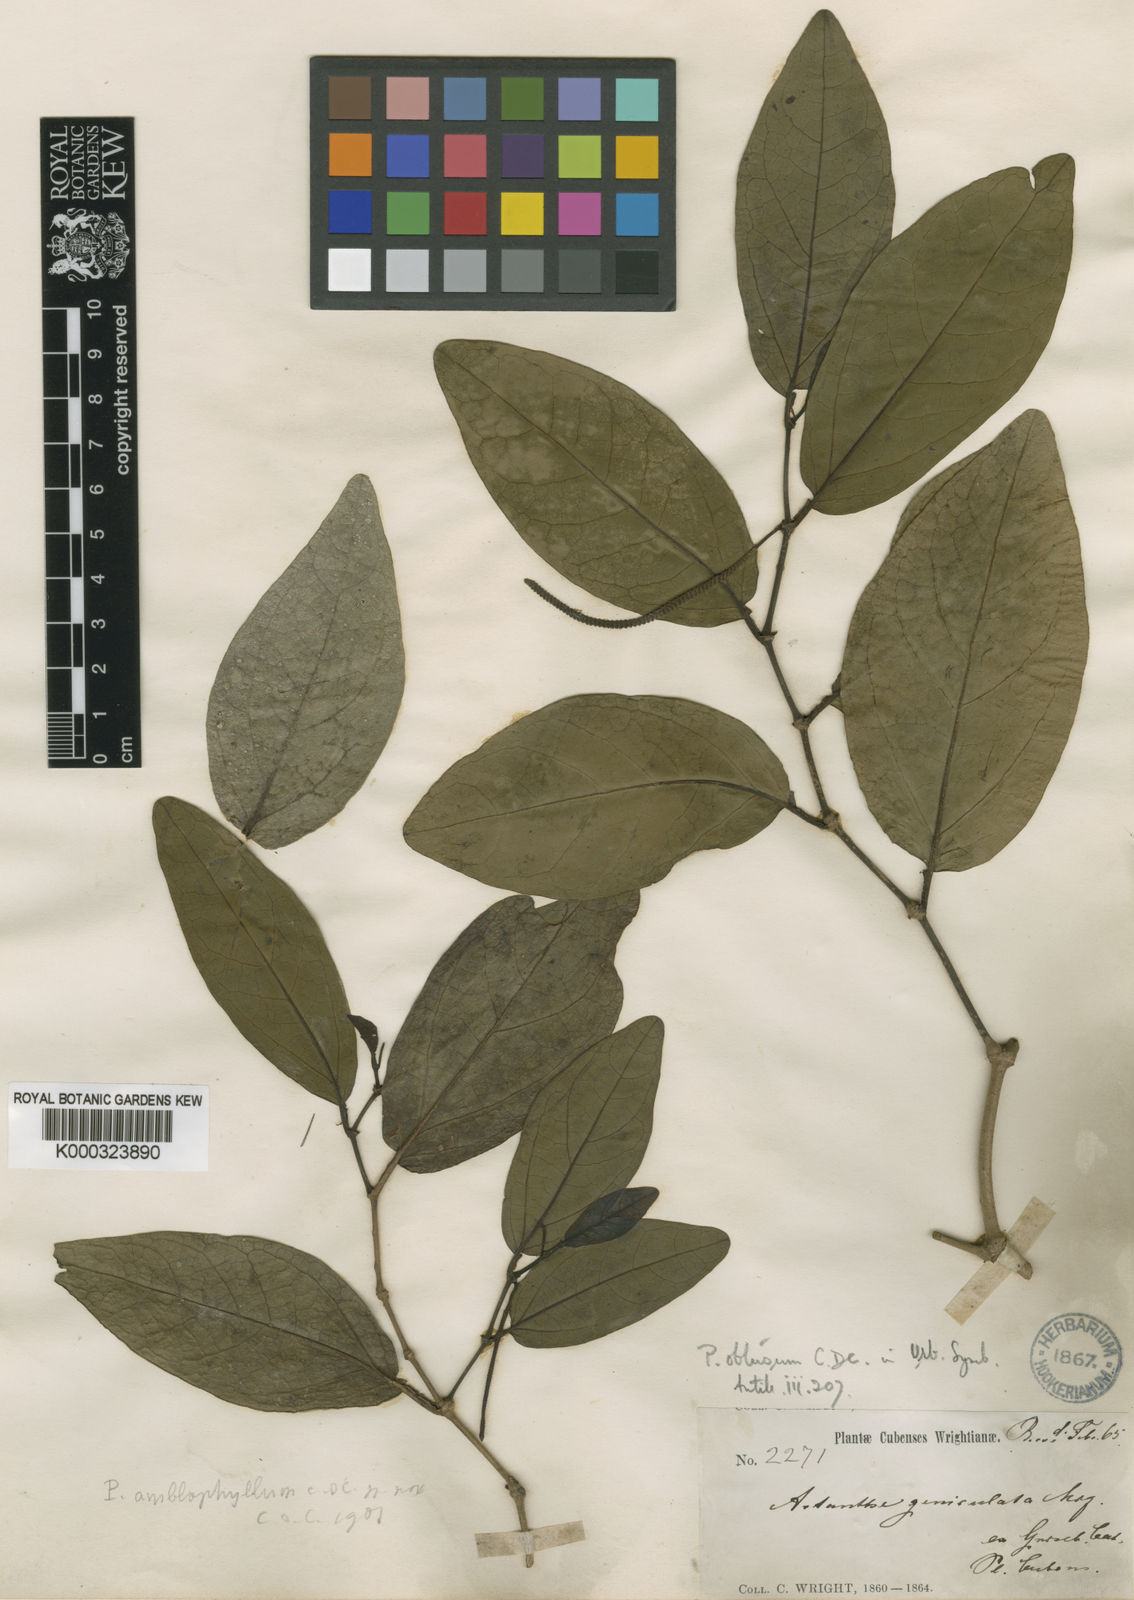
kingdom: Plantae
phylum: Tracheophyta
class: Magnoliopsida
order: Piperales
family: Piperaceae
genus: Piper
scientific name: Piper obtusum
